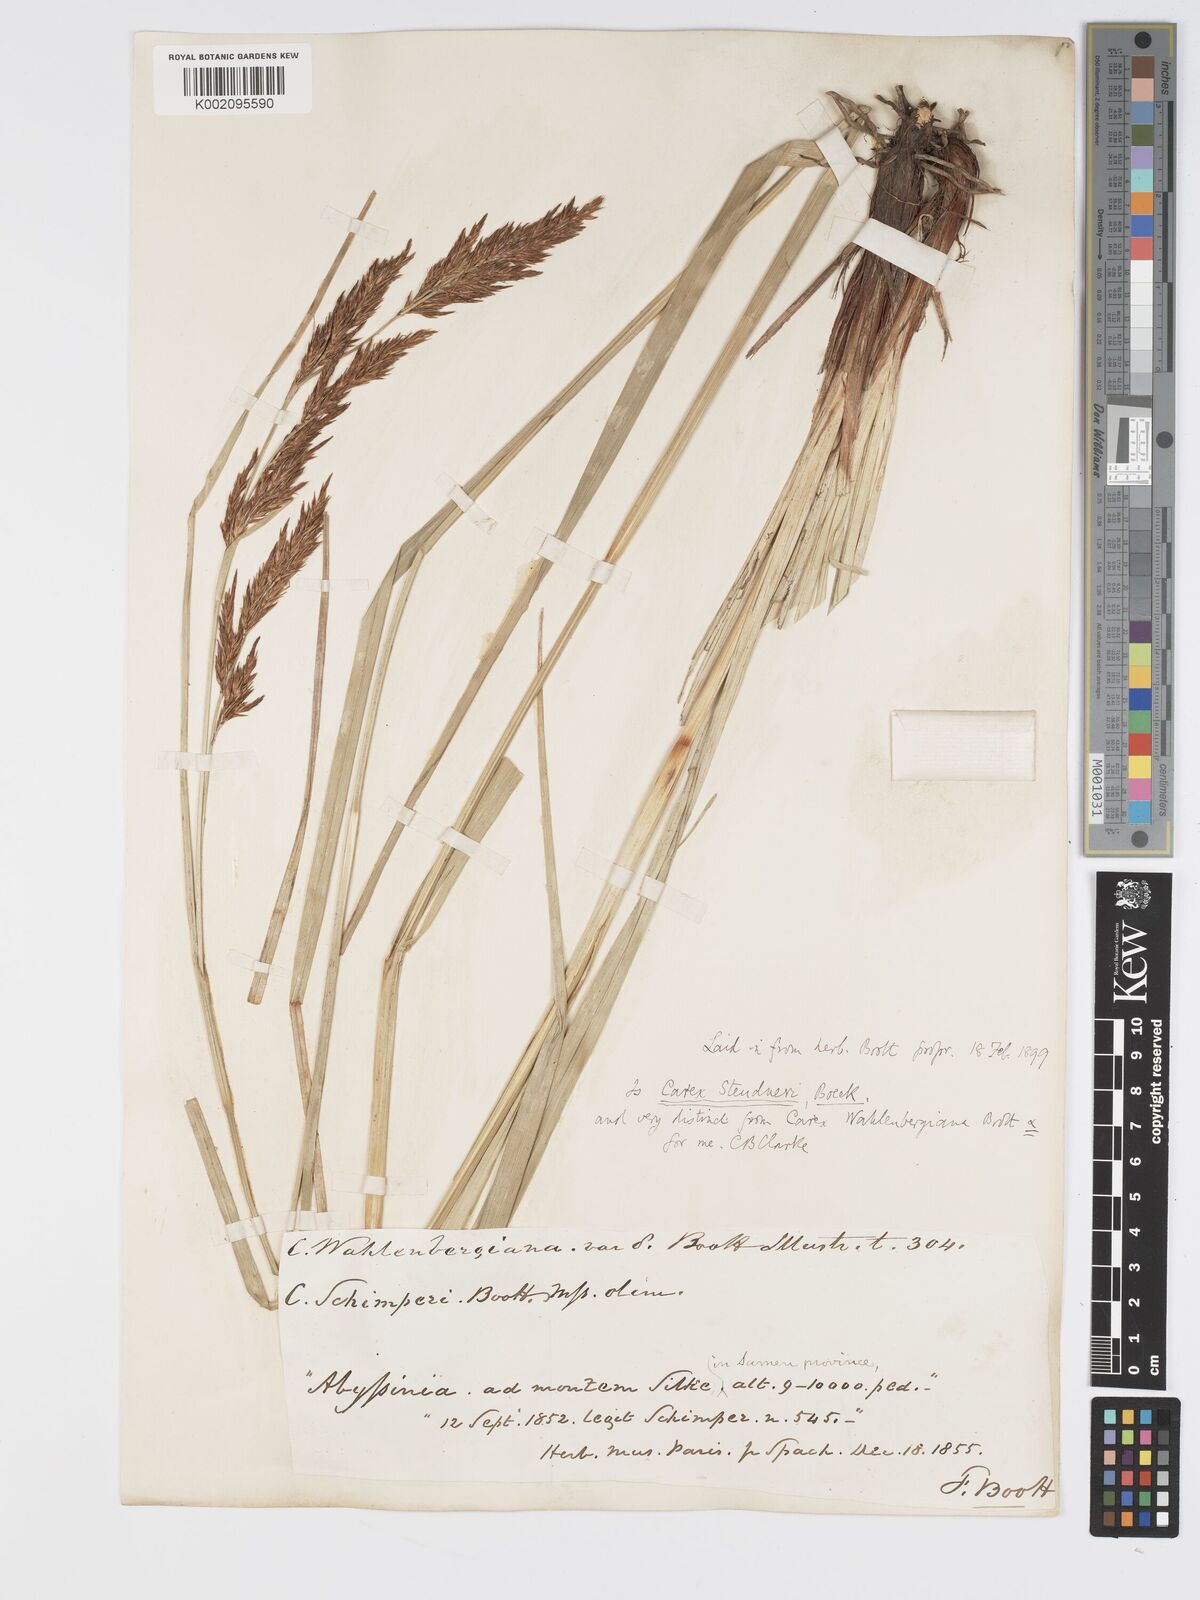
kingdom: Plantae
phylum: Tracheophyta
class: Liliopsida
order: Poales
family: Cyperaceae
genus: Carex
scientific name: Carex steudneri
